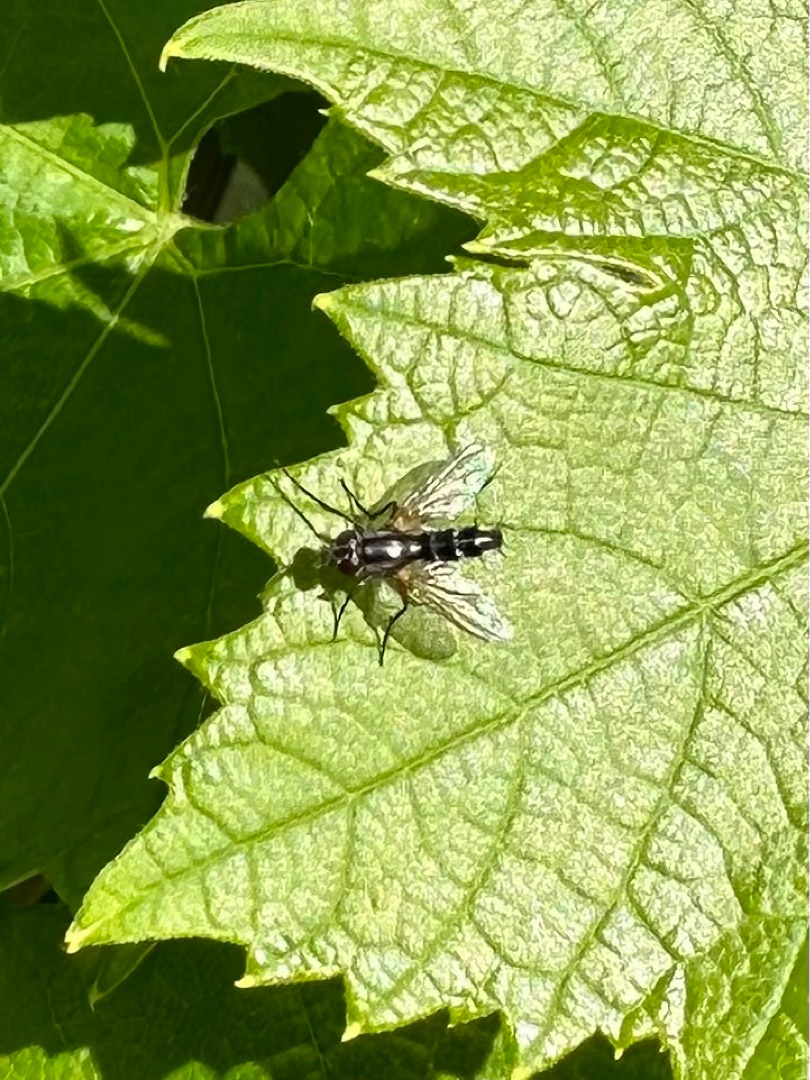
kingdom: Animalia
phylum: Arthropoda
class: Insecta
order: Diptera
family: Tachinidae
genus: Mintho
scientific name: Mintho rufiventris
